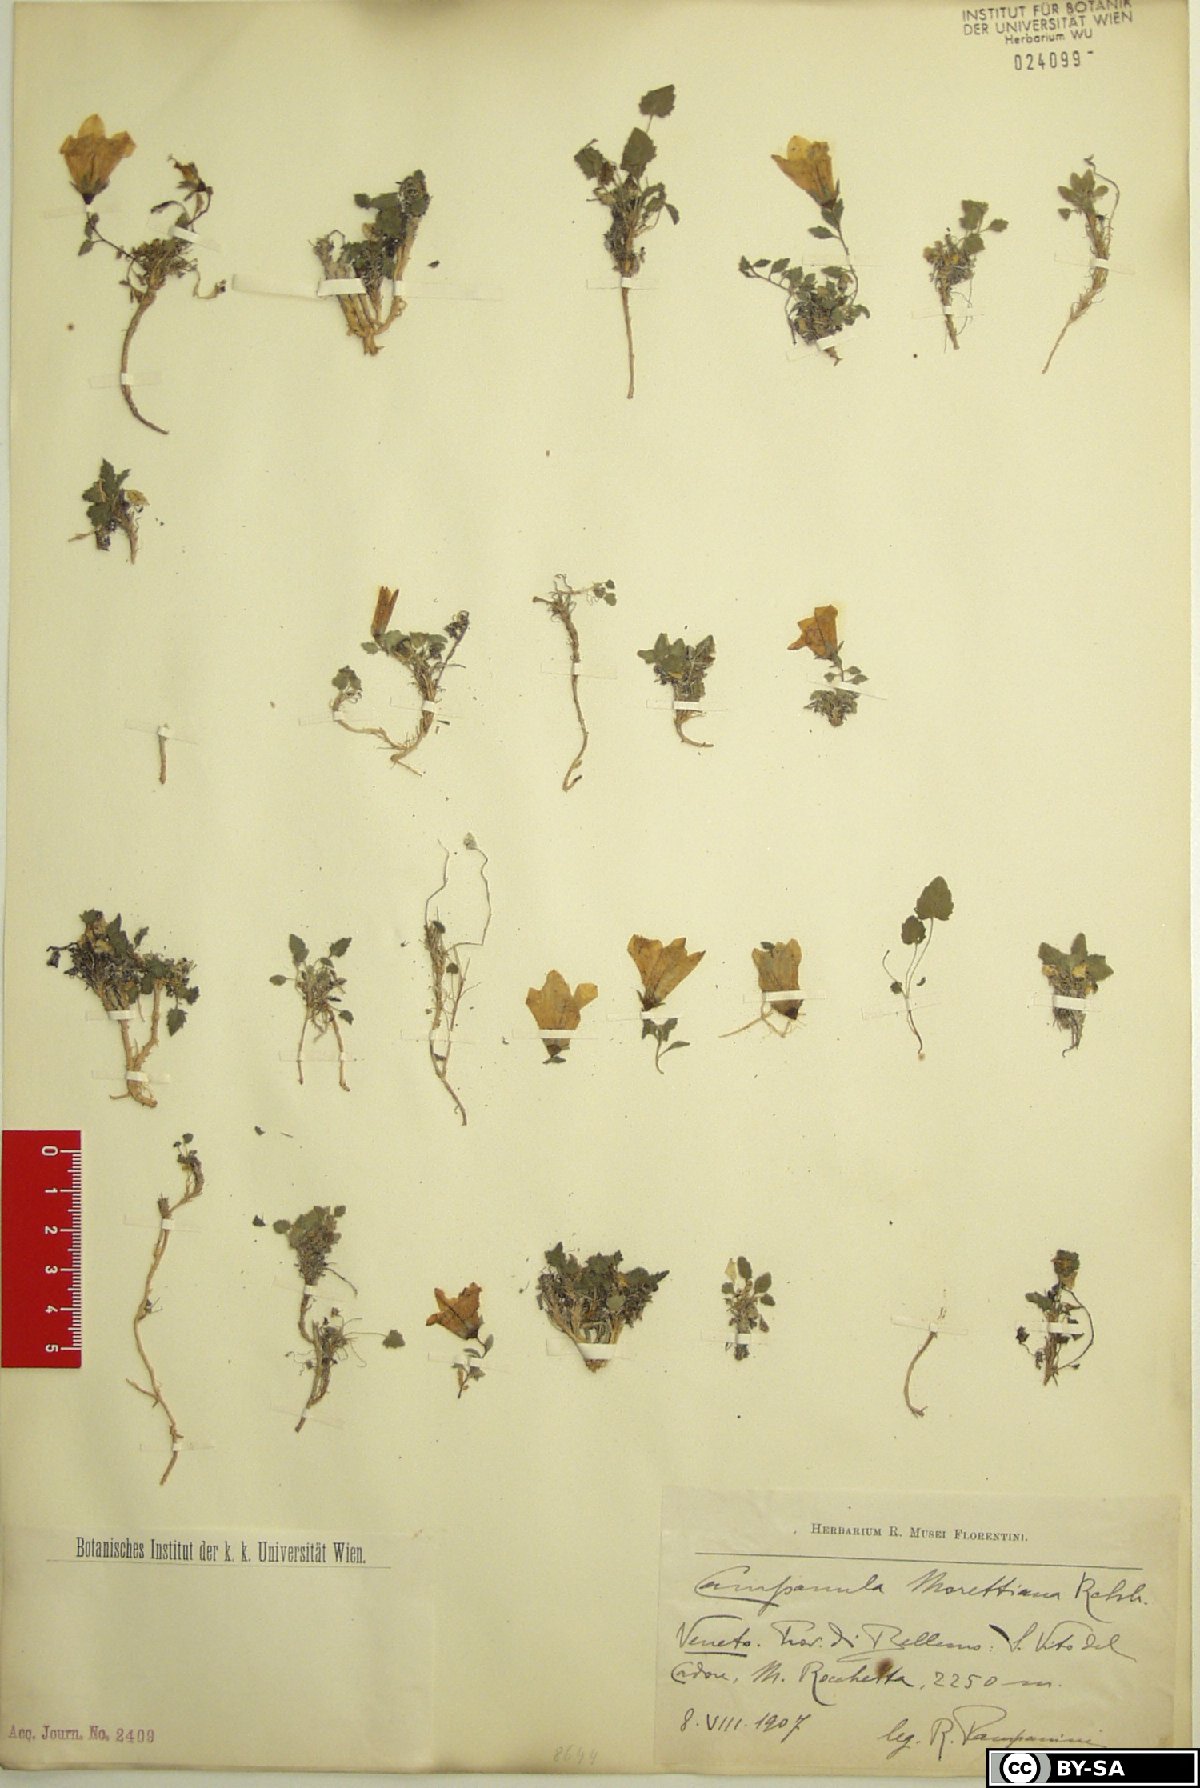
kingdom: Plantae
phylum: Tracheophyta
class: Magnoliopsida
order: Asterales
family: Campanulaceae
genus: Campanula
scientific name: Campanula morettiana
